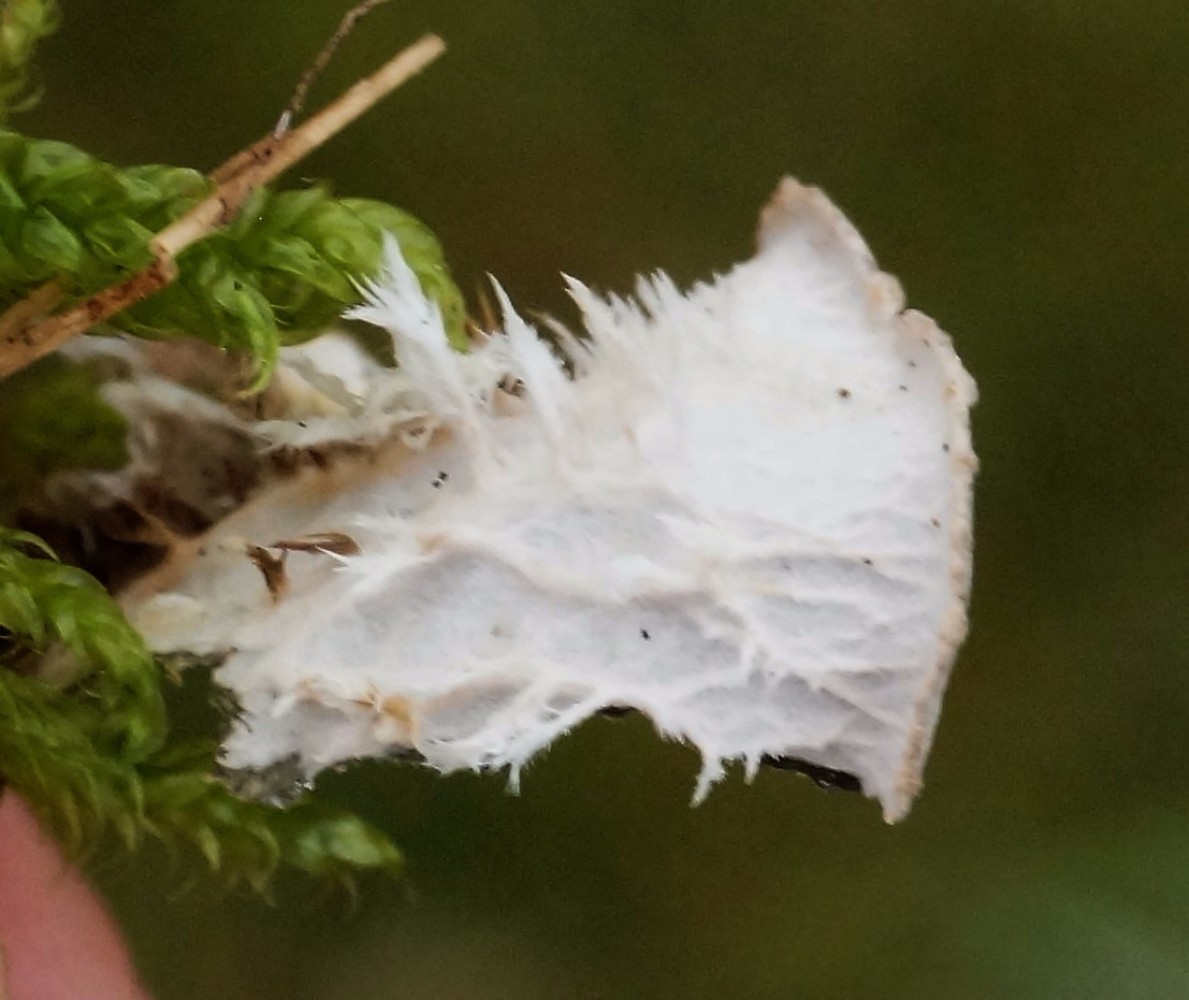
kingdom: Fungi
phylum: Ascomycota
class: Lecanoromycetes
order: Peltigerales
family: Peltigeraceae
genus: Peltigera
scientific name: Peltigera membranacea
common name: tynd skjoldlav
